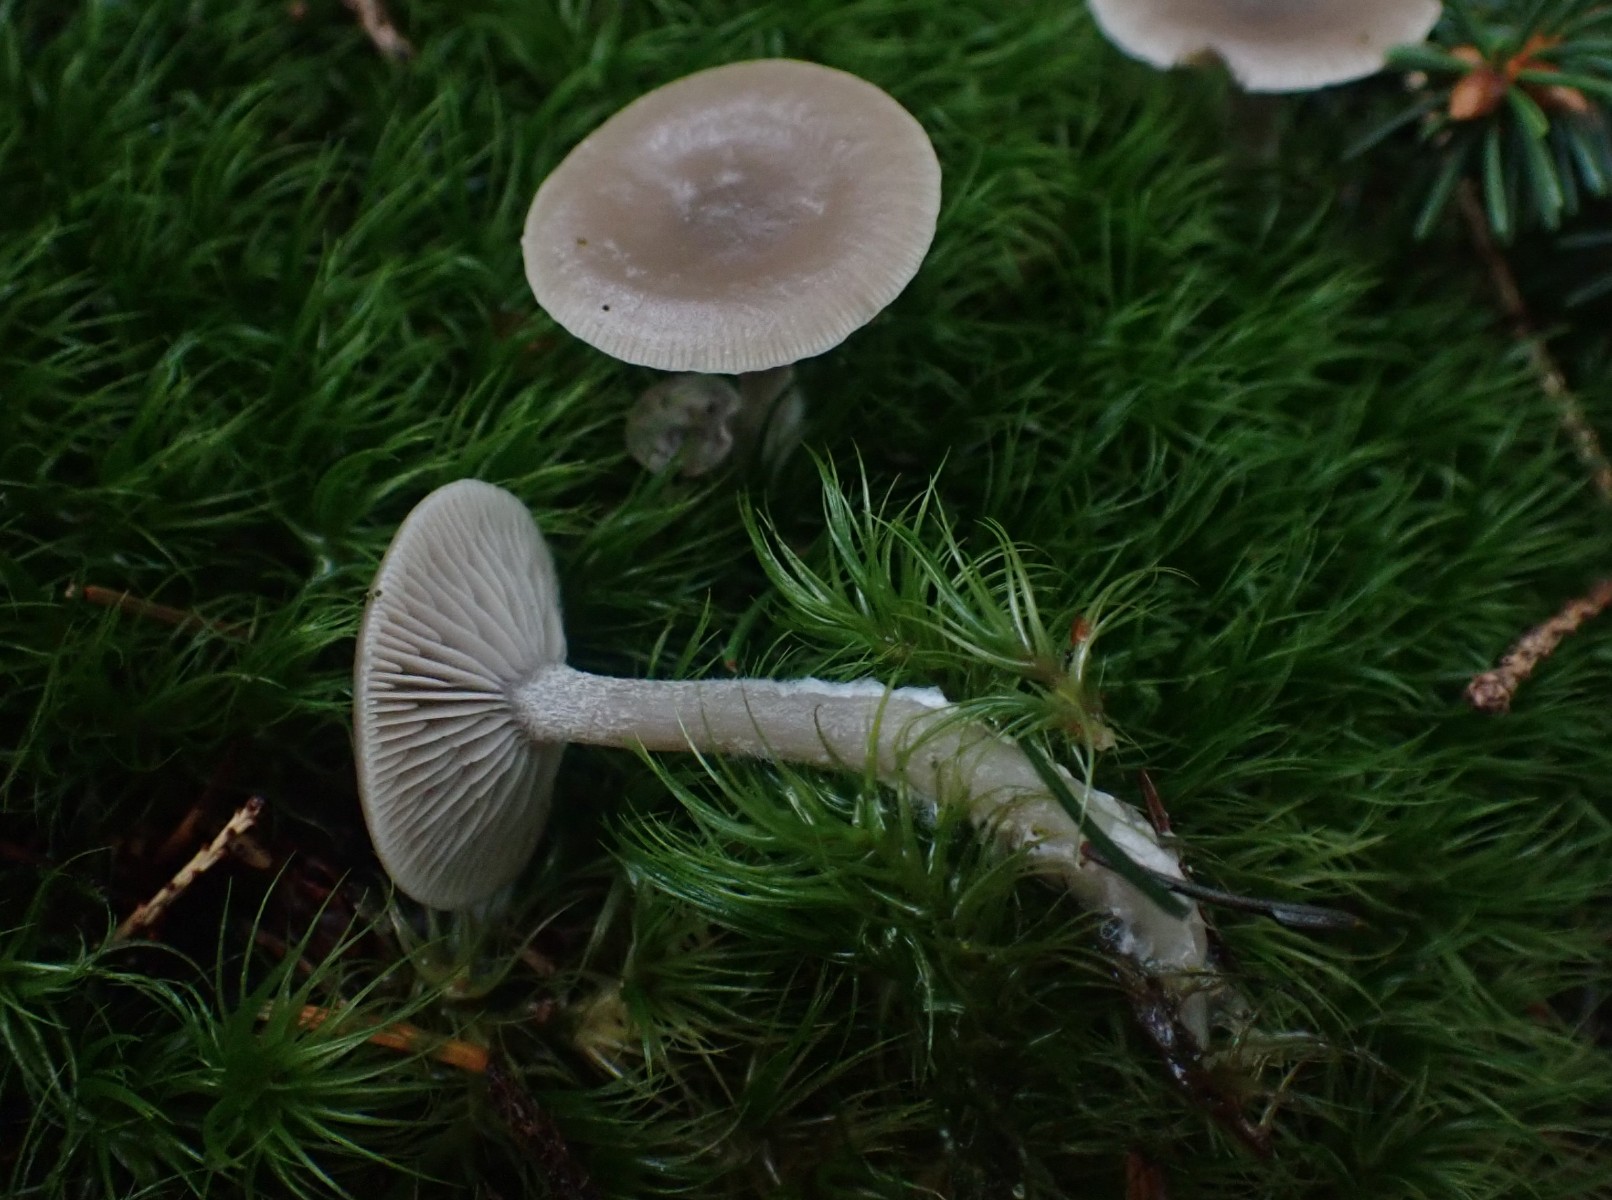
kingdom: Fungi
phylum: Basidiomycota
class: Agaricomycetes
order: Agaricales
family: Tricholomataceae
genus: Clitocybe
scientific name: Clitocybe vibecina
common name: randstribet tragthat
